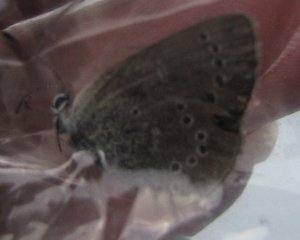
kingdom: Animalia
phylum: Arthropoda
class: Insecta
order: Lepidoptera
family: Lycaenidae
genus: Glaucopsyche
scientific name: Glaucopsyche lygdamus
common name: Silvery Blue
